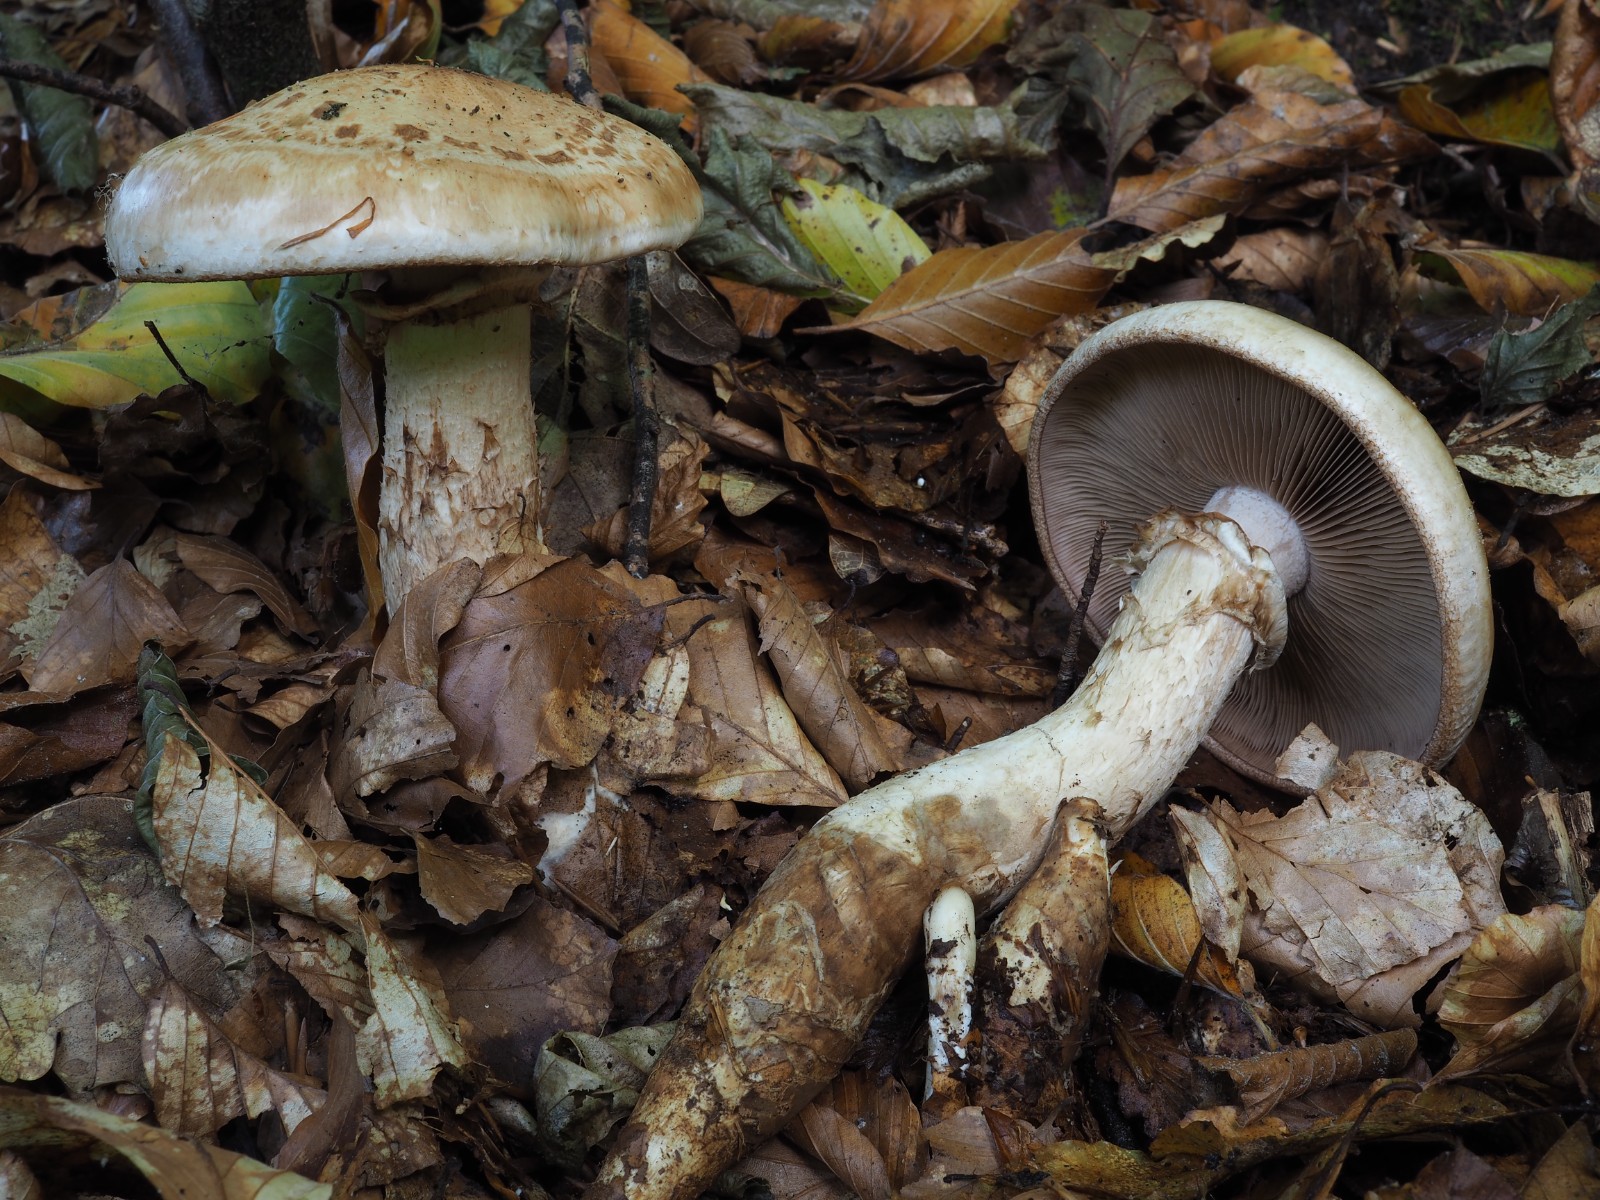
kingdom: Fungi
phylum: Basidiomycota
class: Agaricomycetes
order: Agaricales
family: Hymenogastraceae
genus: Hebeloma
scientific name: Hebeloma radicosum
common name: pælerods-tåreblad
